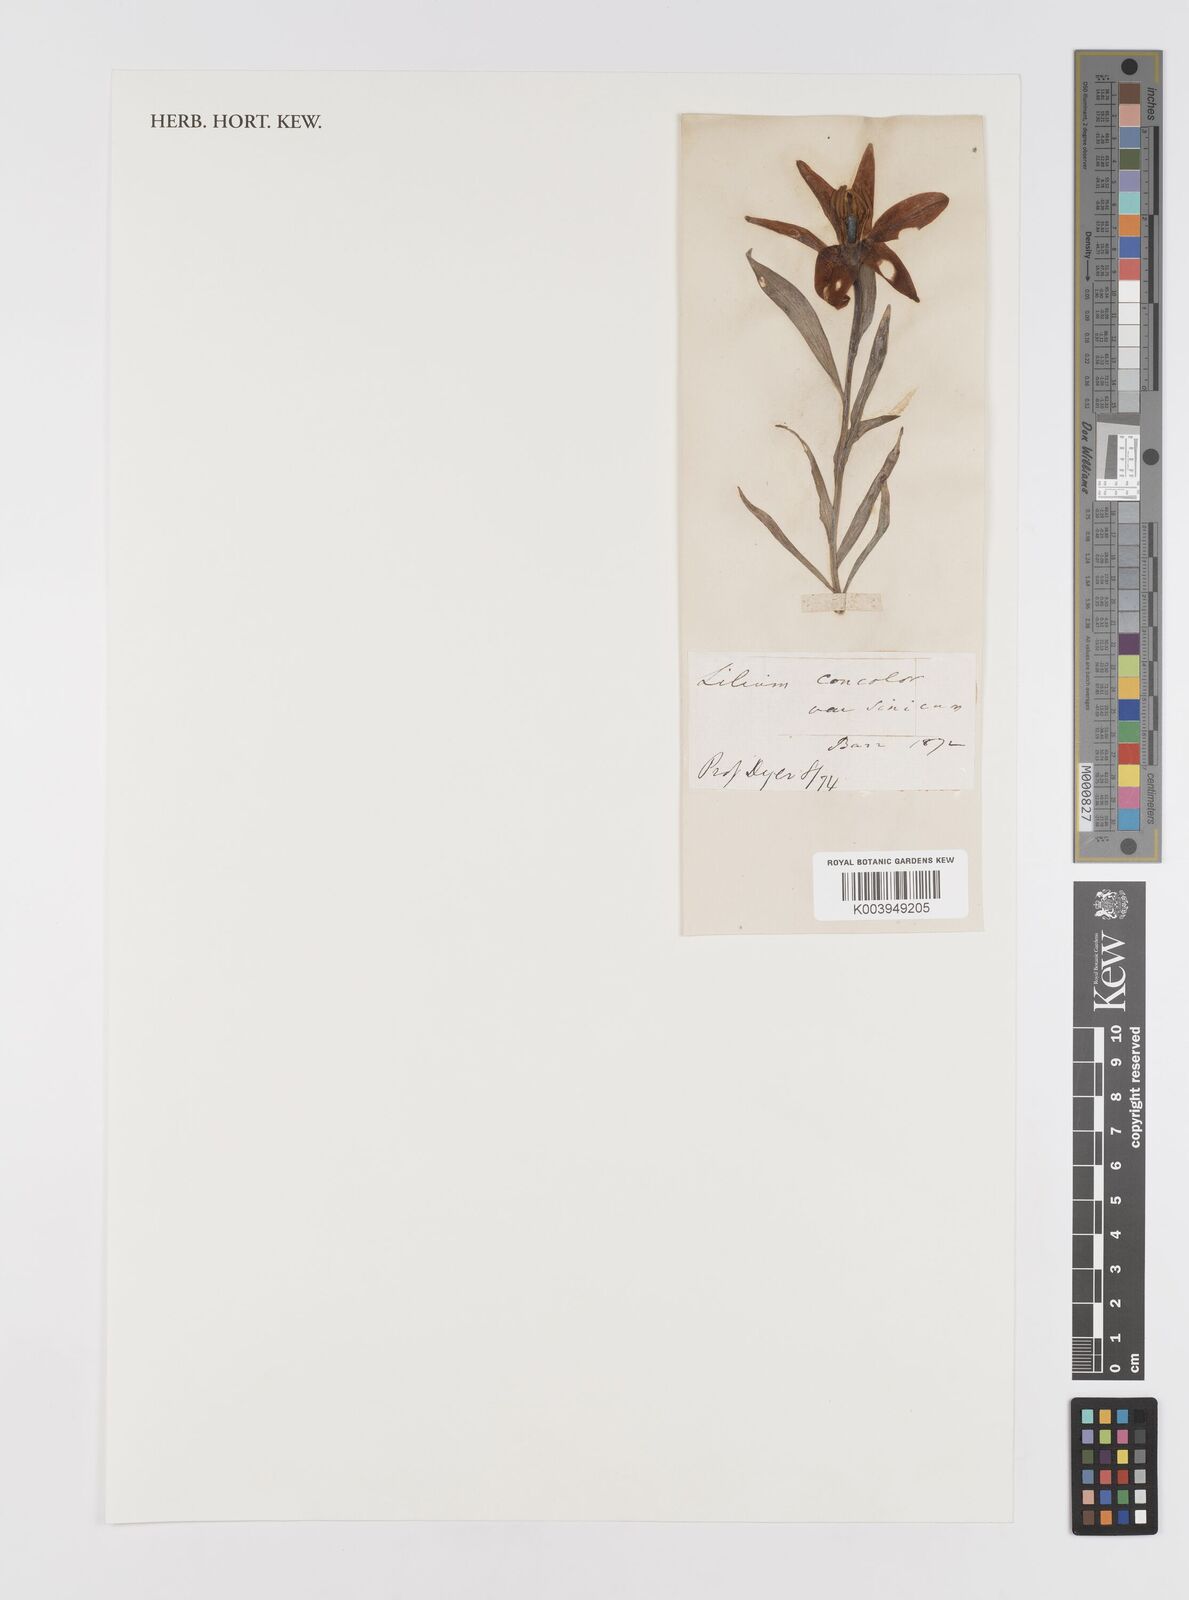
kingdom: Plantae
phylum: Tracheophyta
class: Liliopsida
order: Liliales
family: Liliaceae
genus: Lilium
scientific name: Lilium concolor
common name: Morning-star lily
